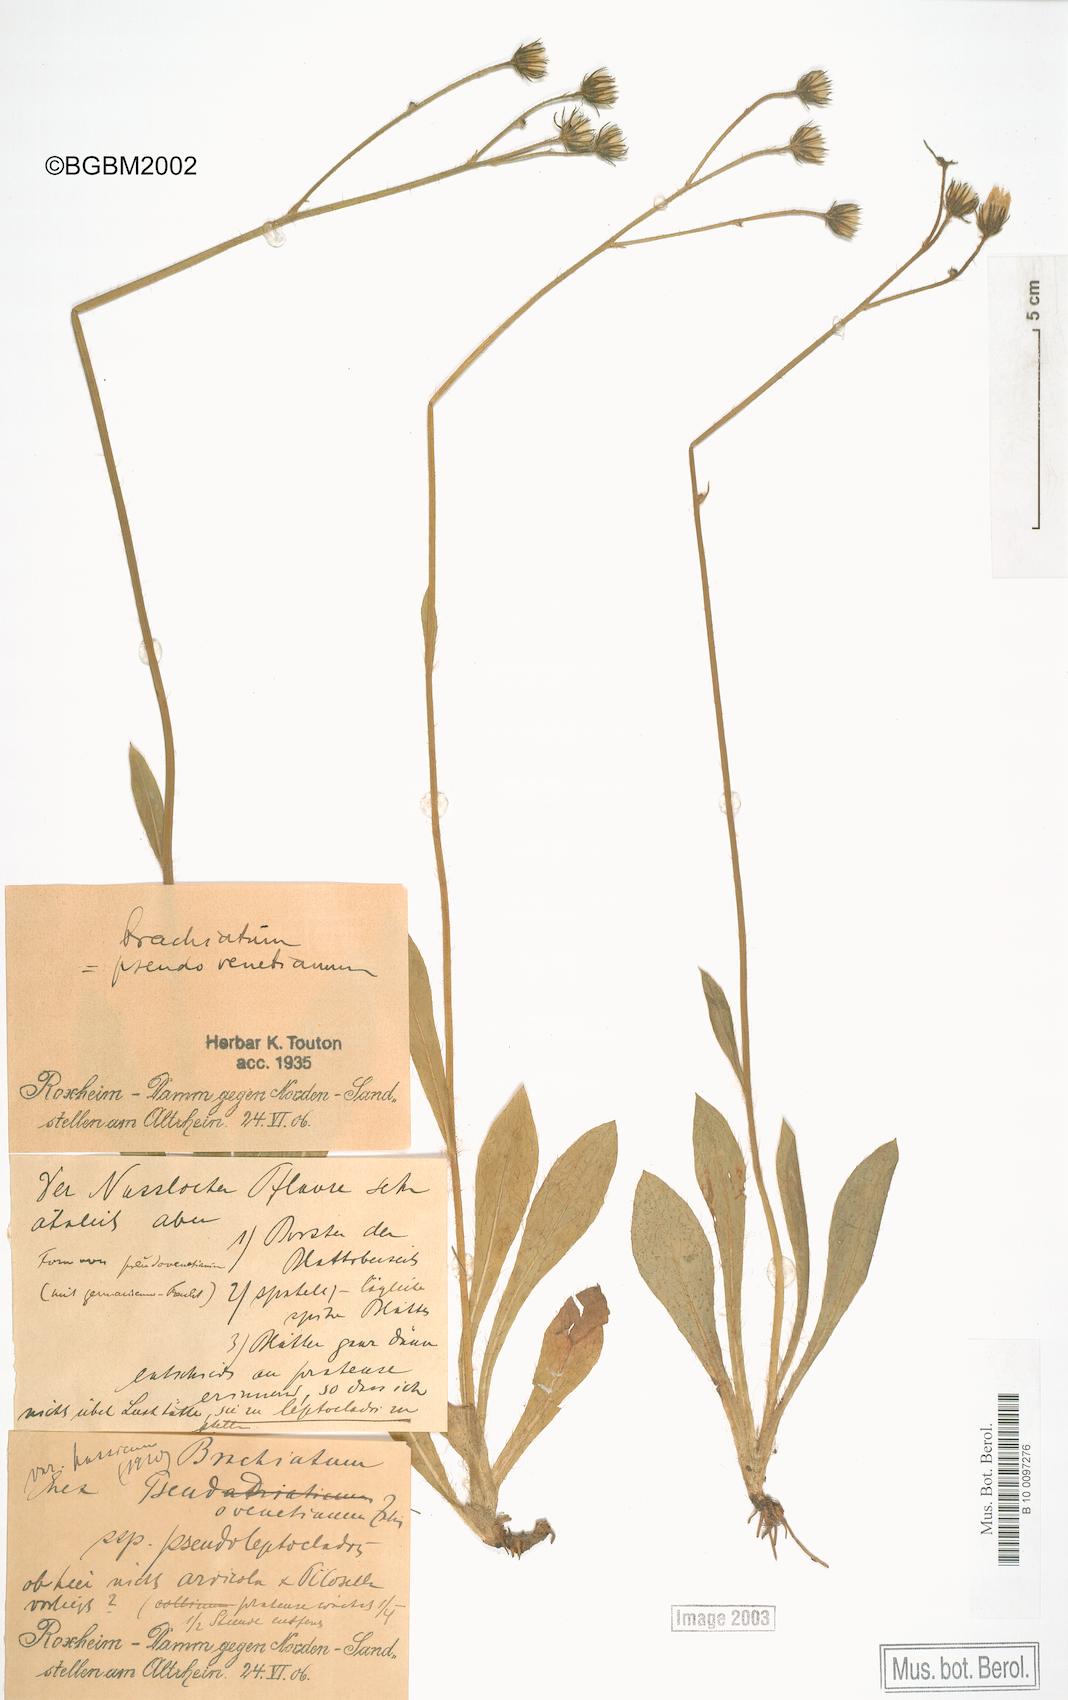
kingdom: Plantae
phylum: Tracheophyta
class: Magnoliopsida
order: Asterales
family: Asteraceae
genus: Pilosella
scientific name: Pilosella acutifolia
